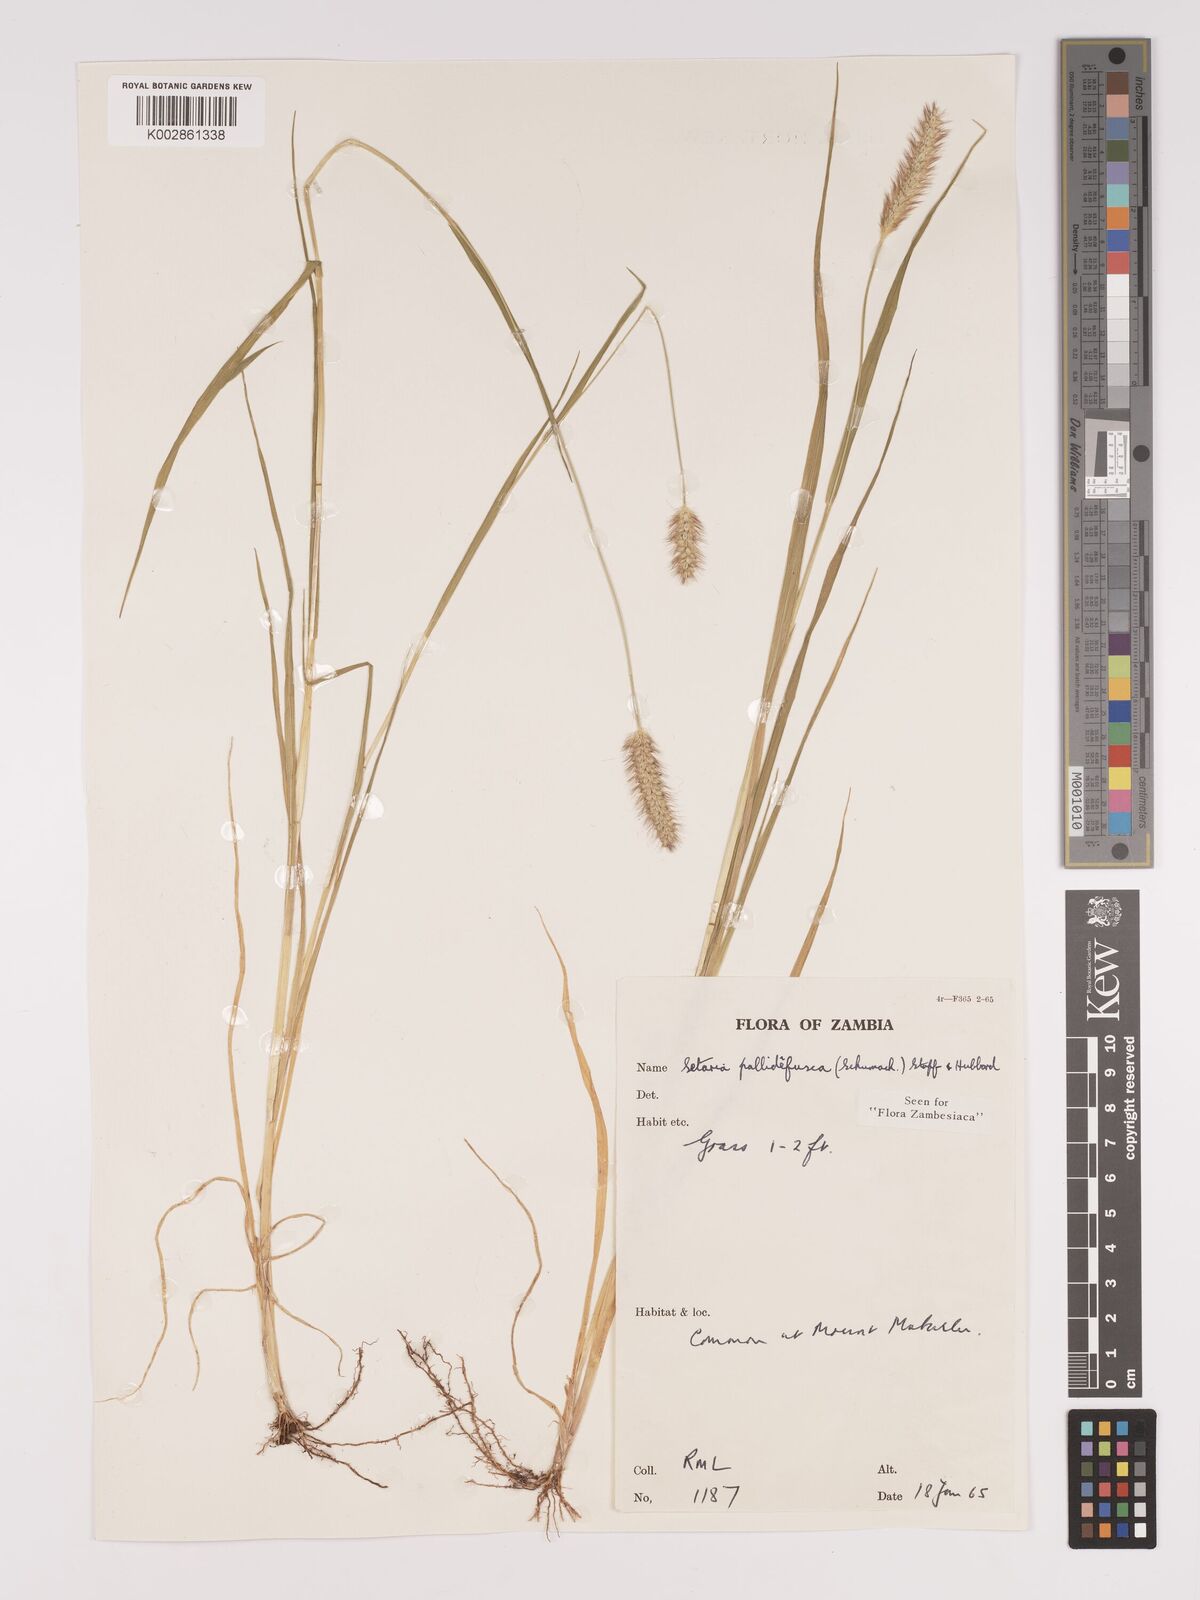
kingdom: Plantae
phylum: Tracheophyta
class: Liliopsida
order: Poales
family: Poaceae
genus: Setaria
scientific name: Setaria pumila
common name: Yellow bristle-grass
